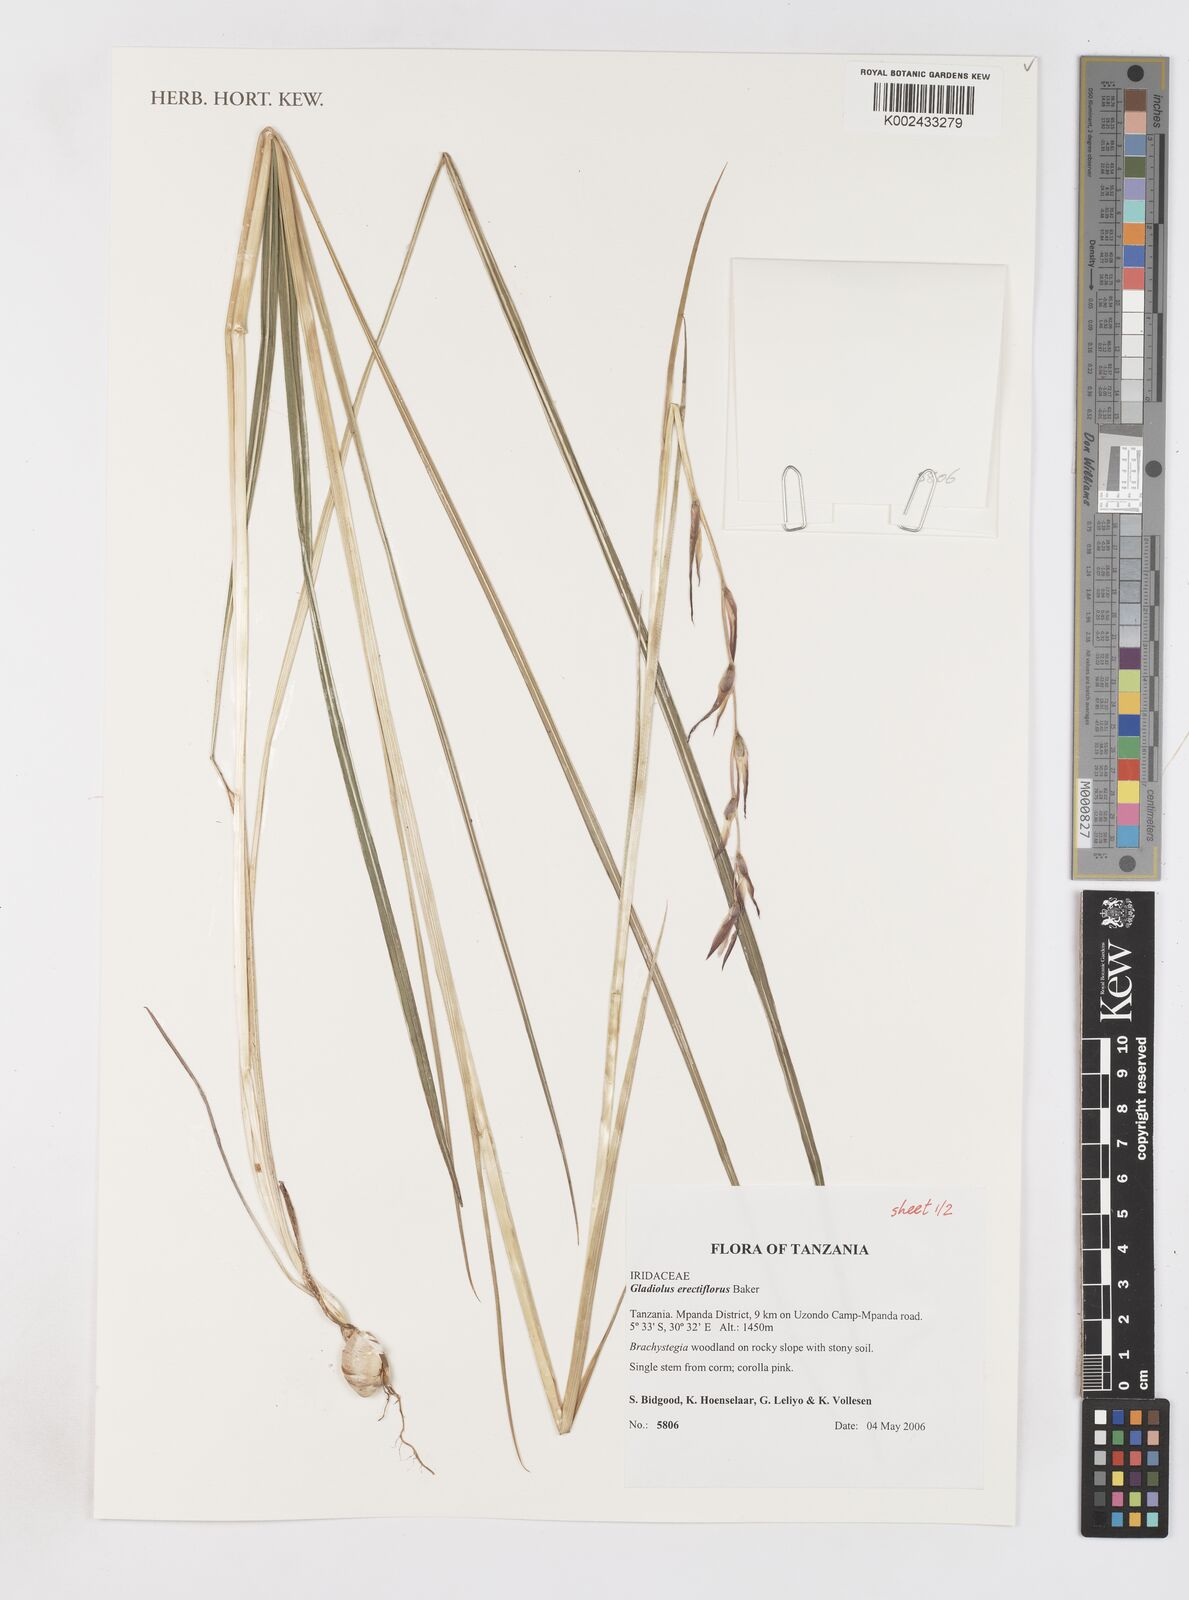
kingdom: Plantae
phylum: Tracheophyta
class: Liliopsida
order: Asparagales
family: Iridaceae
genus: Gladiolus
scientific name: Gladiolus erectiflorus
